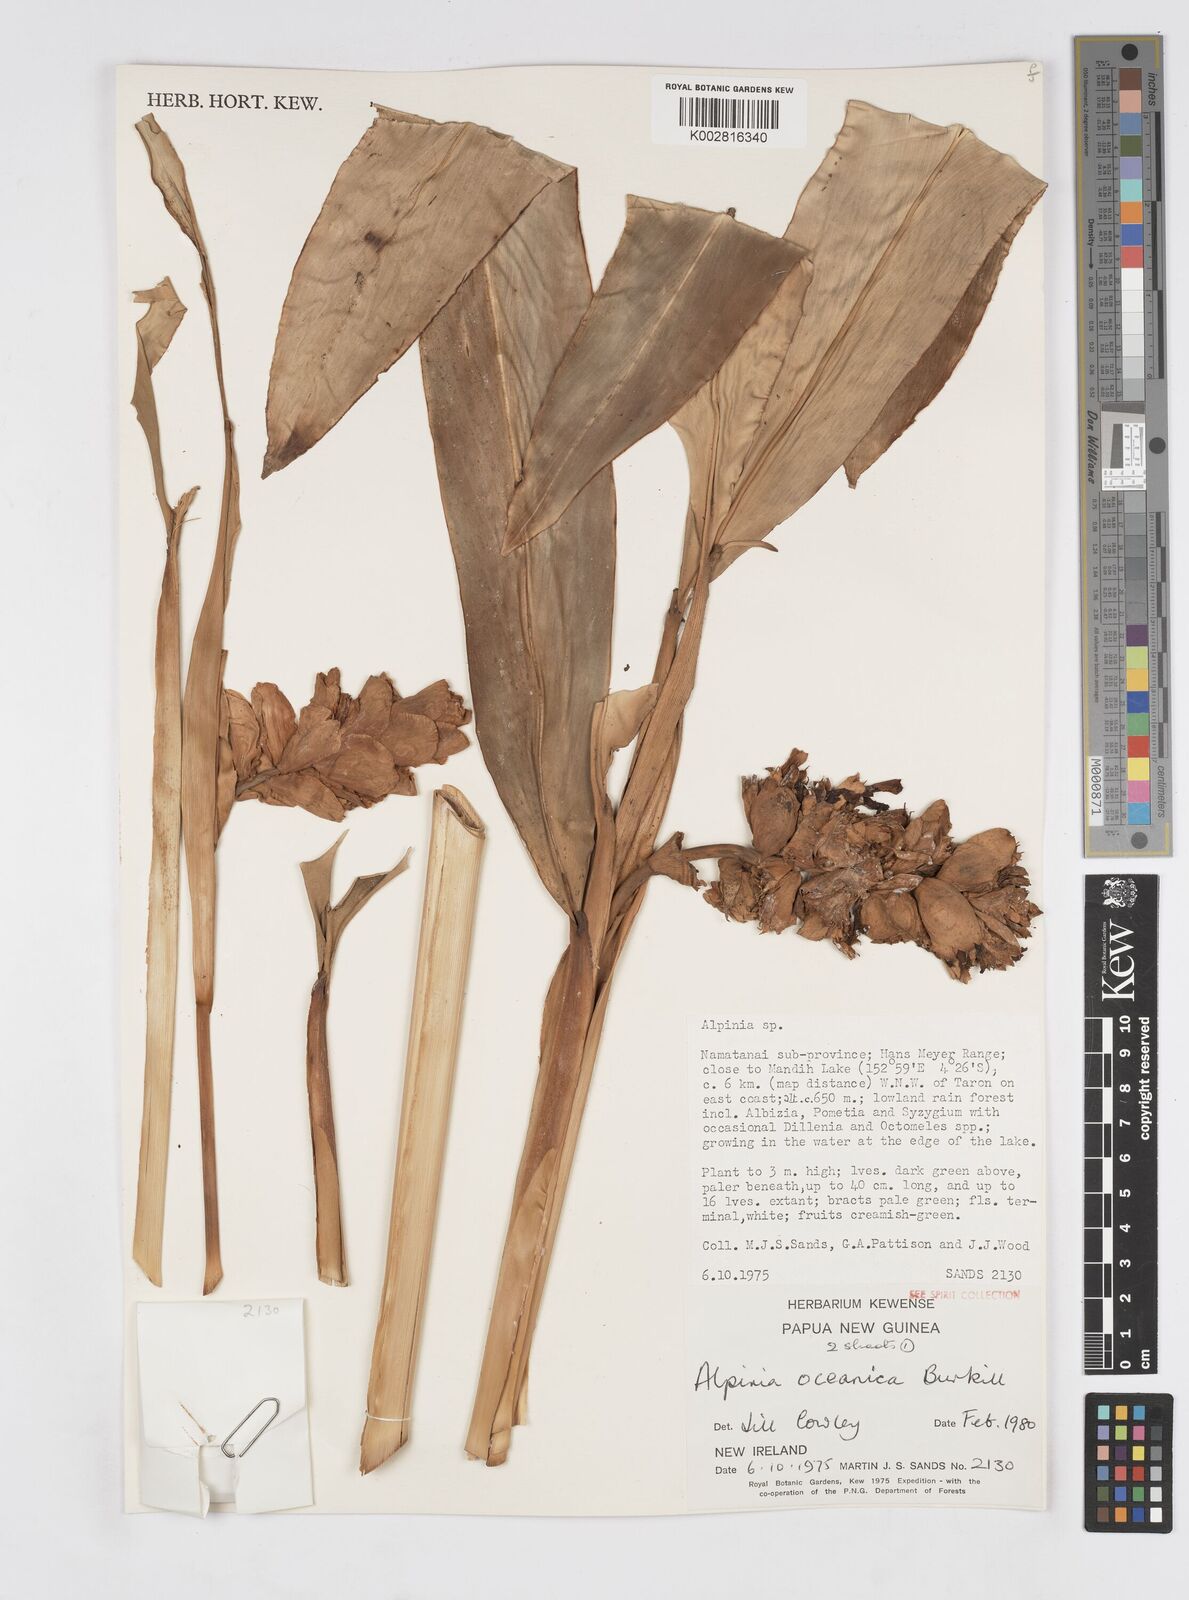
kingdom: Plantae
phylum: Tracheophyta
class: Liliopsida
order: Zingiberales
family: Zingiberaceae
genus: Alpinia
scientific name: Alpinia oceanica
